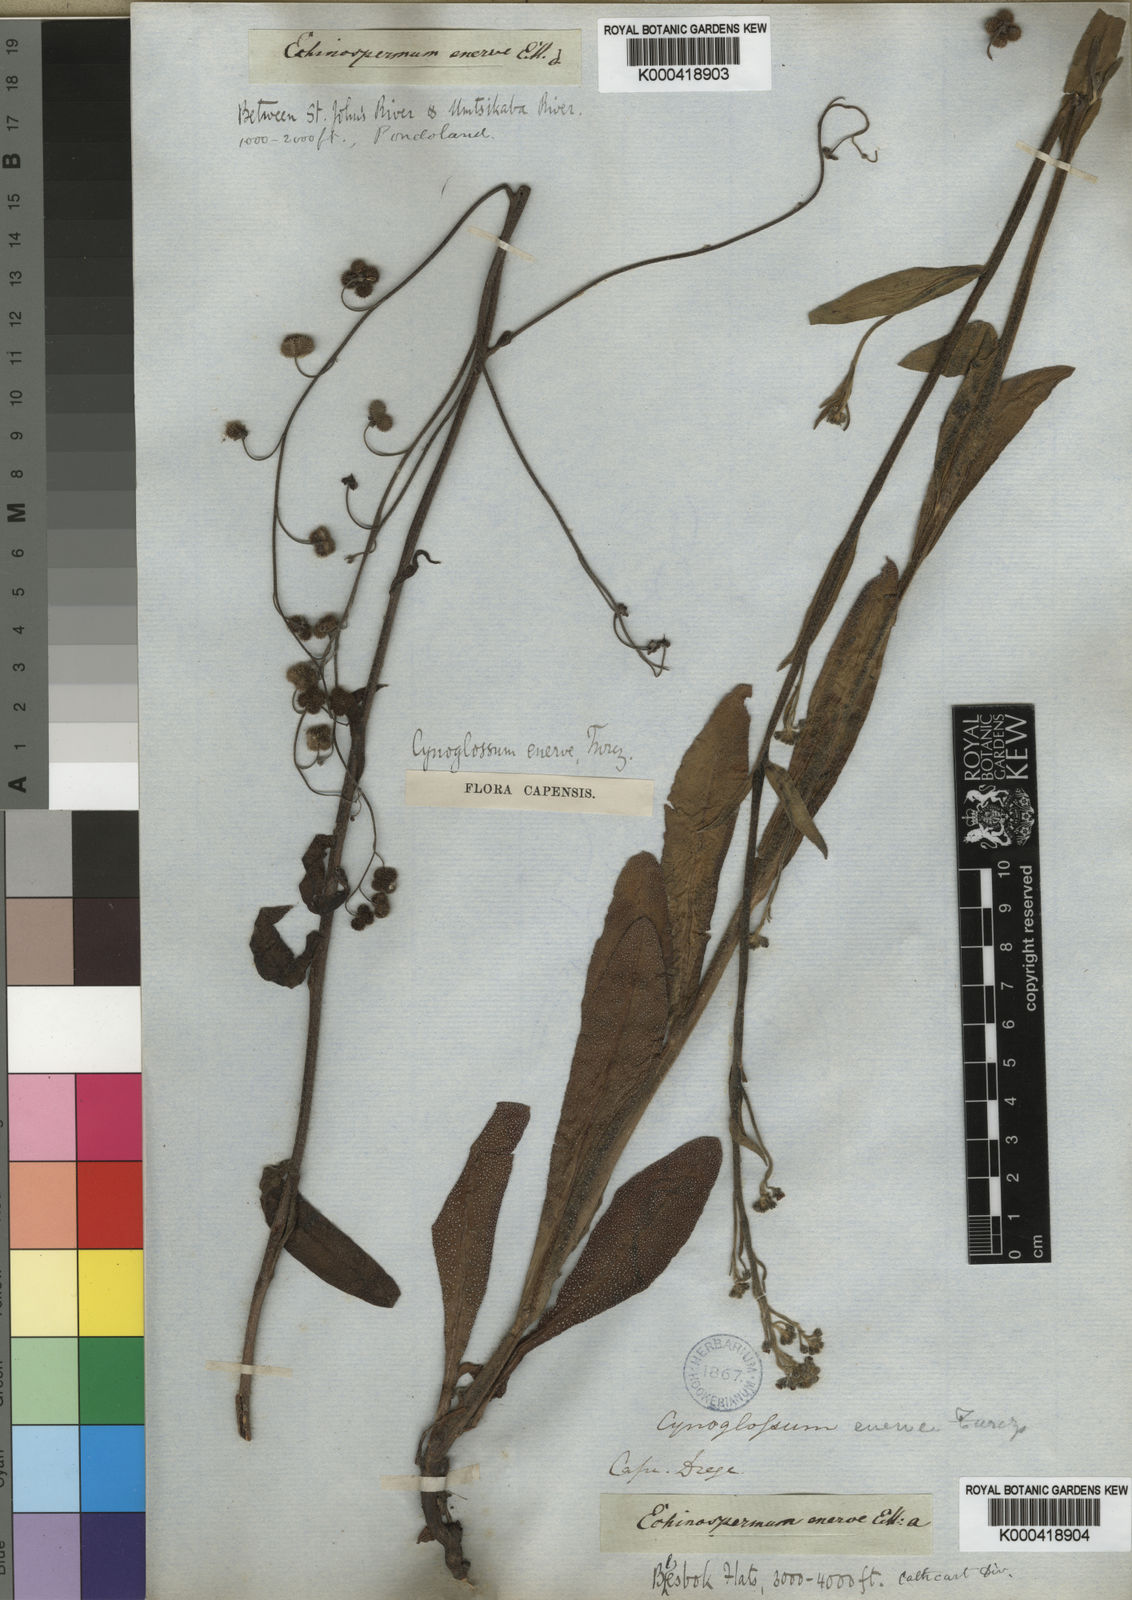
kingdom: Plantae
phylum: Tracheophyta
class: Magnoliopsida
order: Boraginales
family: Boraginaceae
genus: Cynoglossum
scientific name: Cynoglossum hispidum
